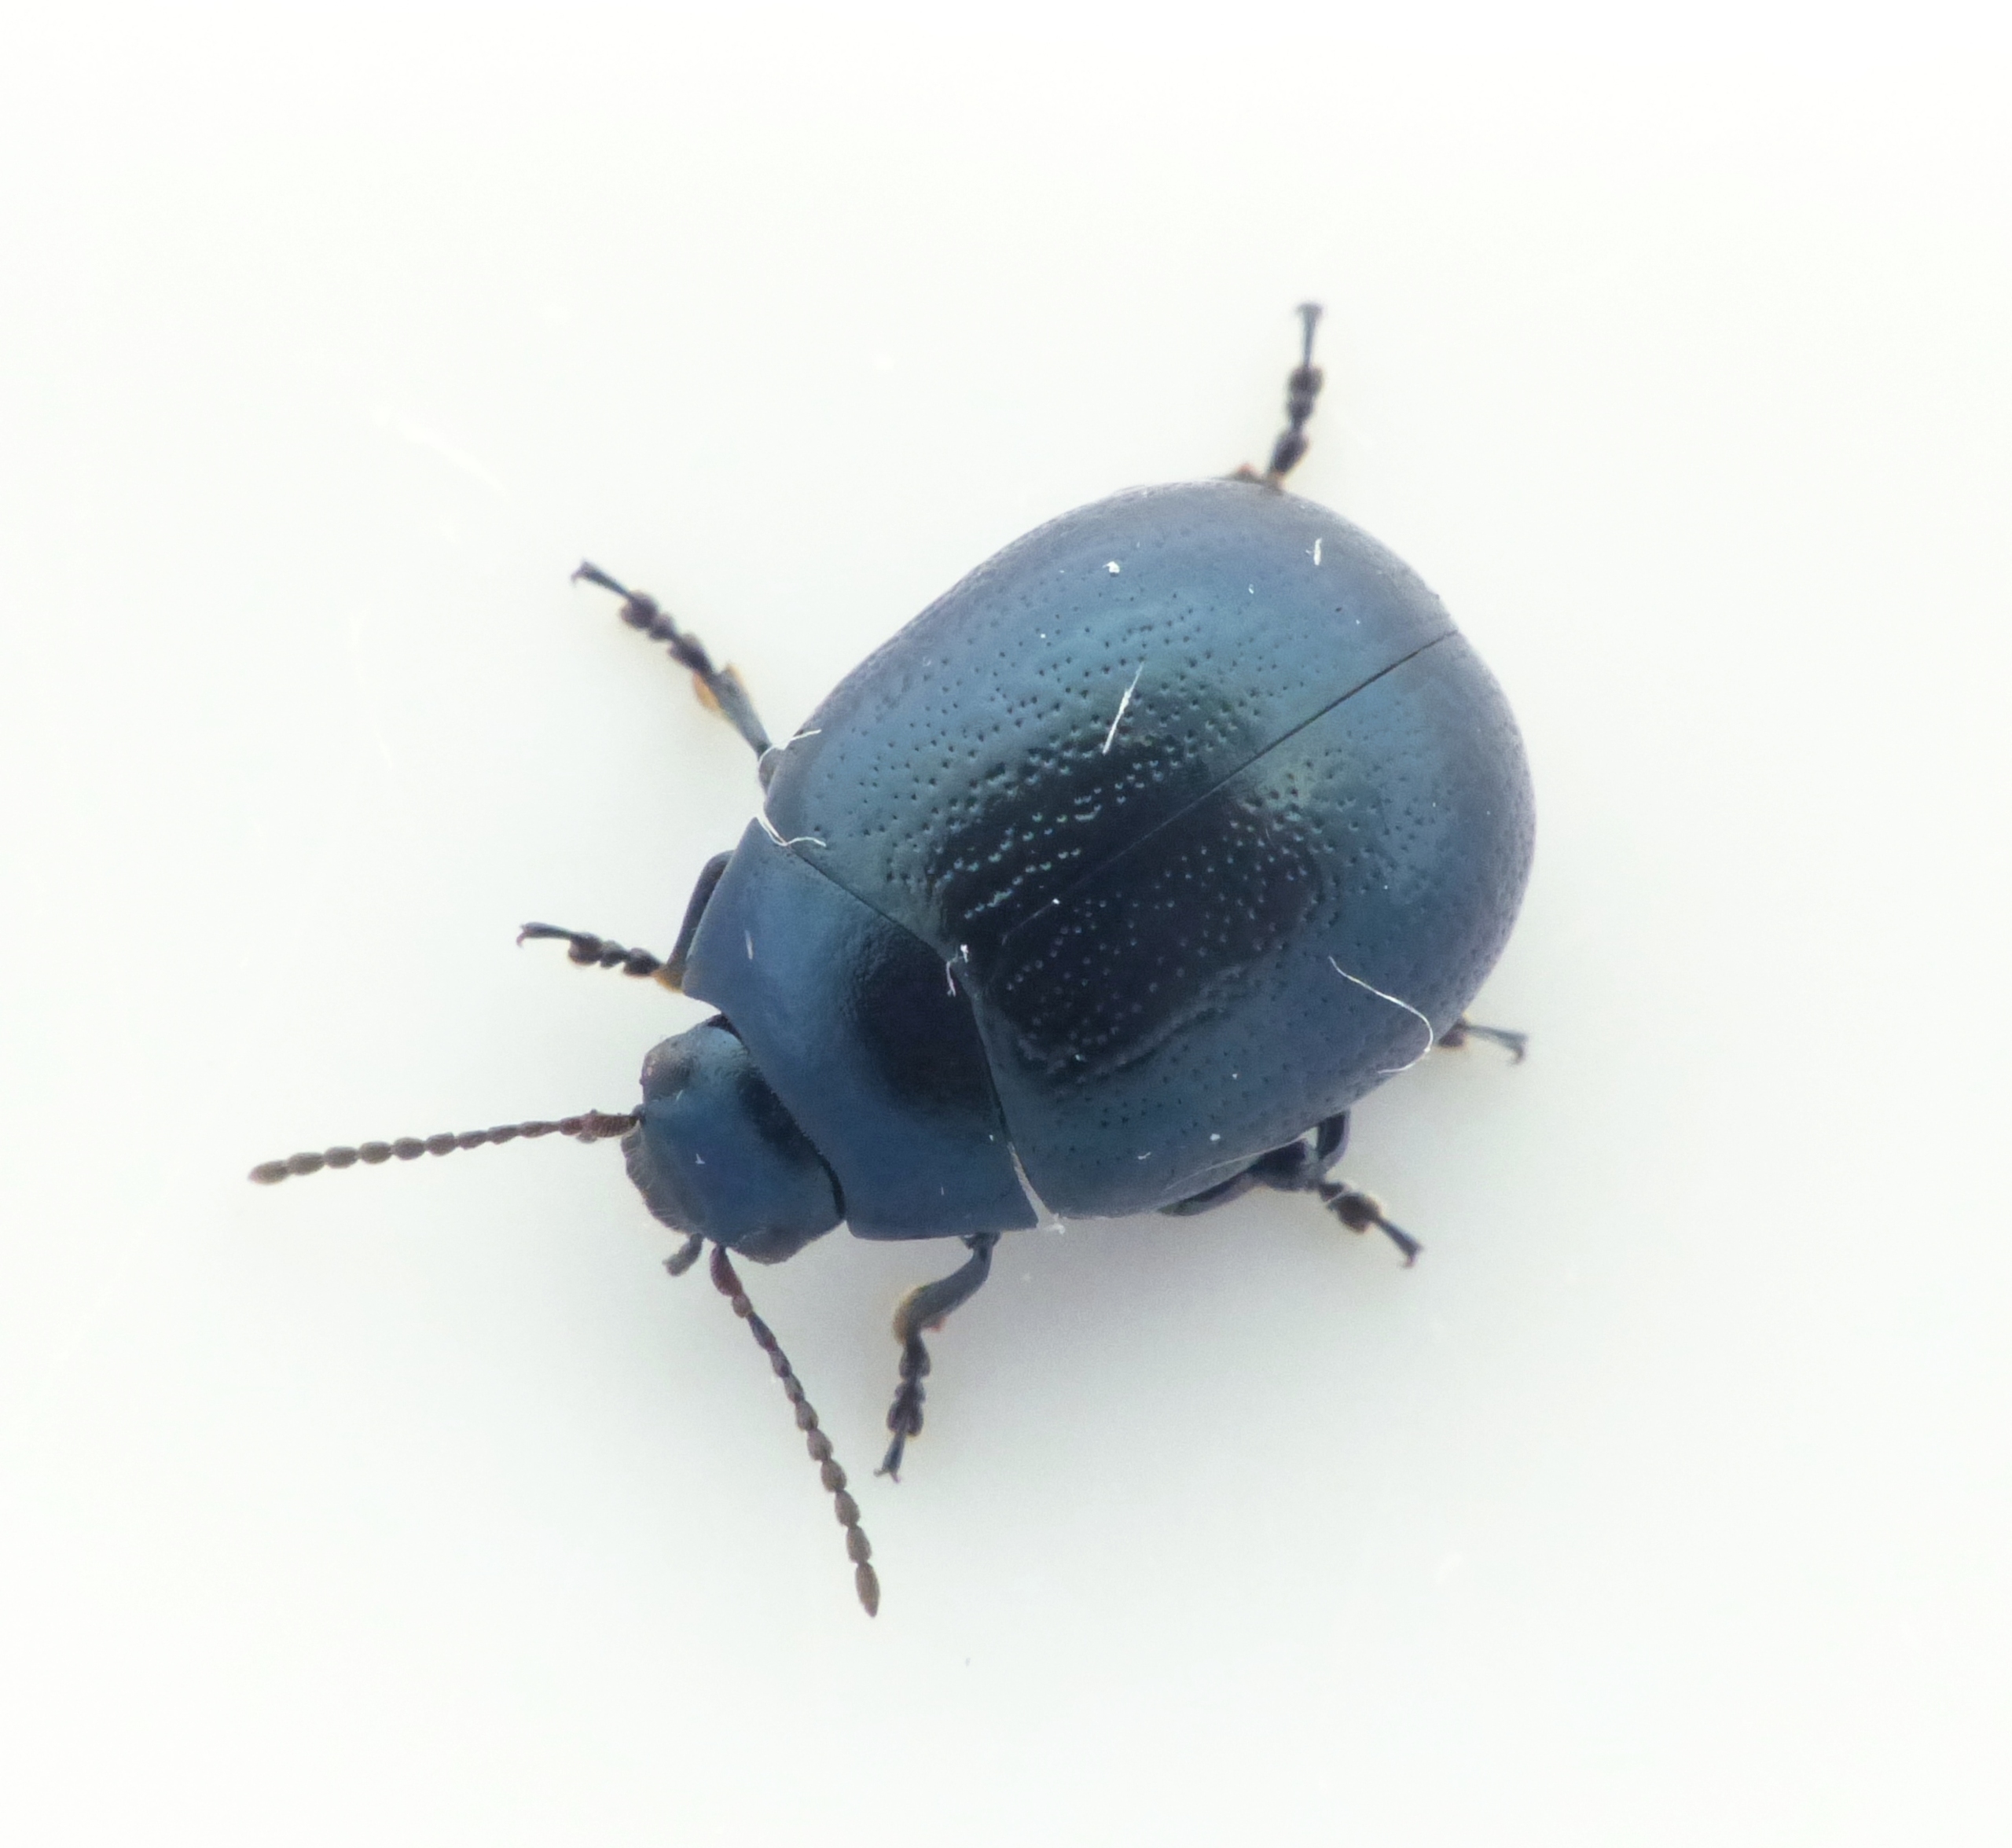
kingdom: Animalia
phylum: Arthropoda
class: Insecta
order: Coleoptera
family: Chrysomelidae
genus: Chrysolina
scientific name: Chrysolina haemoptera
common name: Sortblå guldbille
